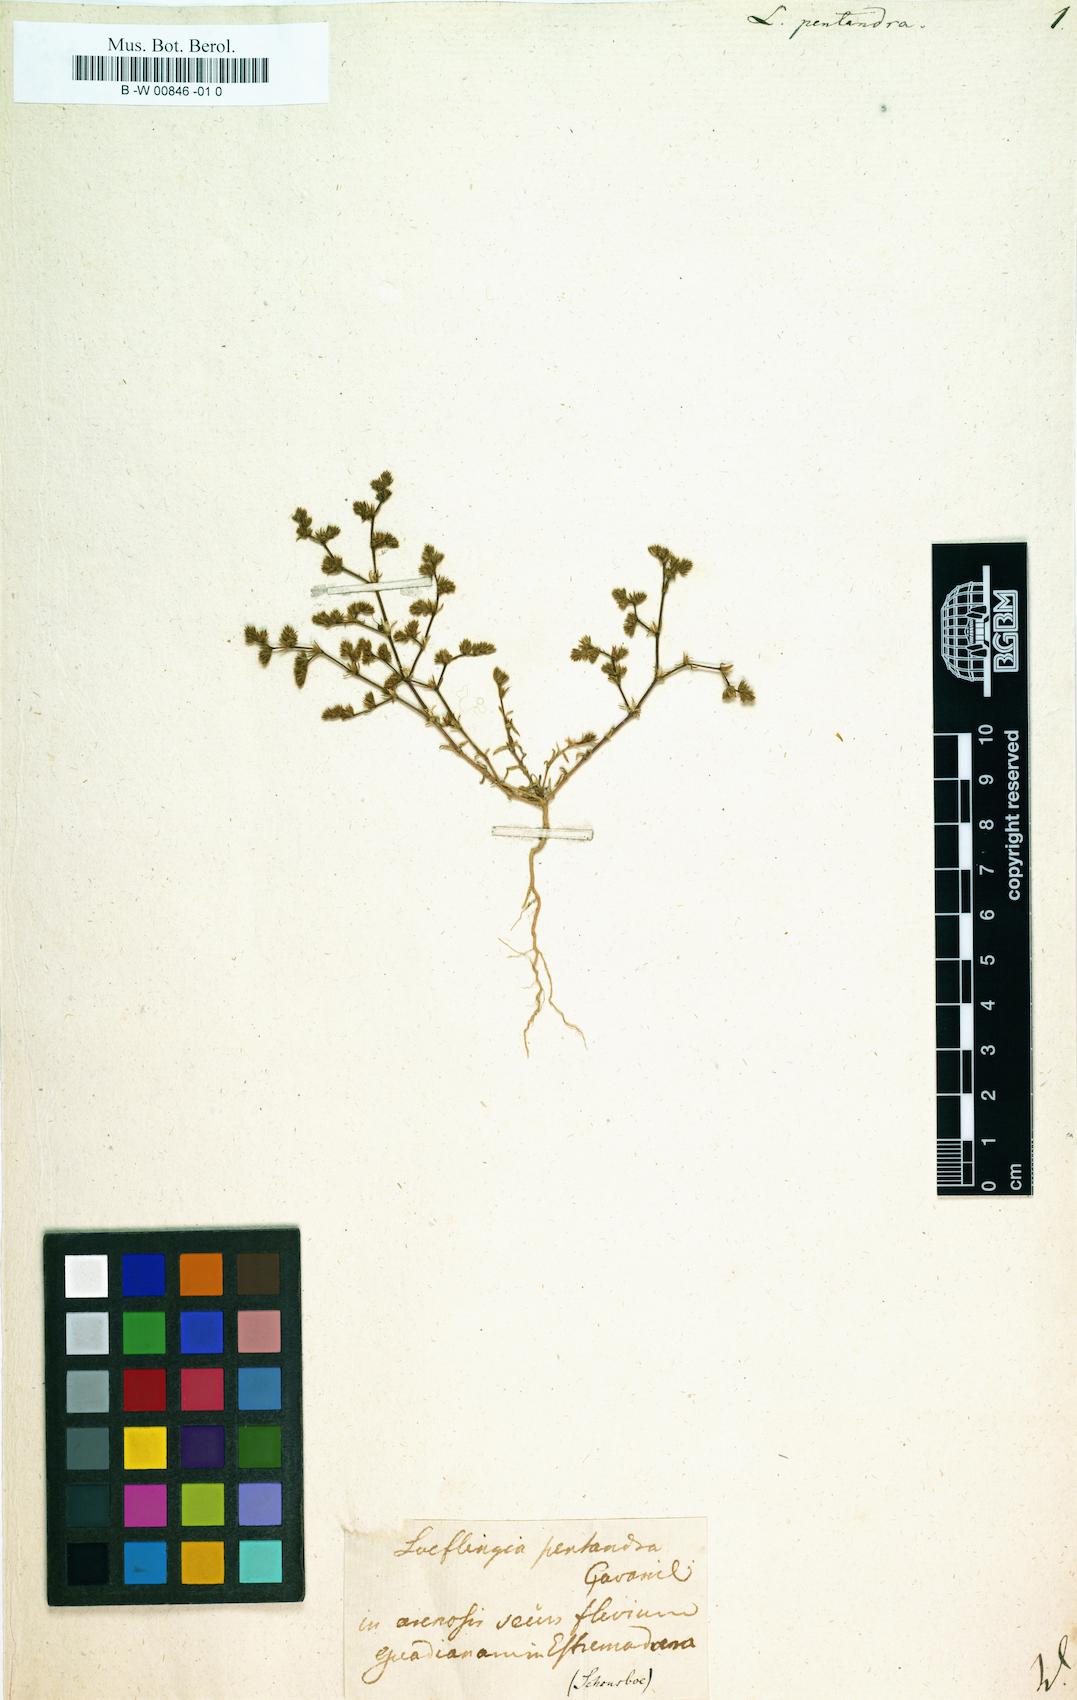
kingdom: Plantae
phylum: Tracheophyta
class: Magnoliopsida
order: Caryophyllales
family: Caryophyllaceae
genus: Loeflingia
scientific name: Loeflingia hispanica
